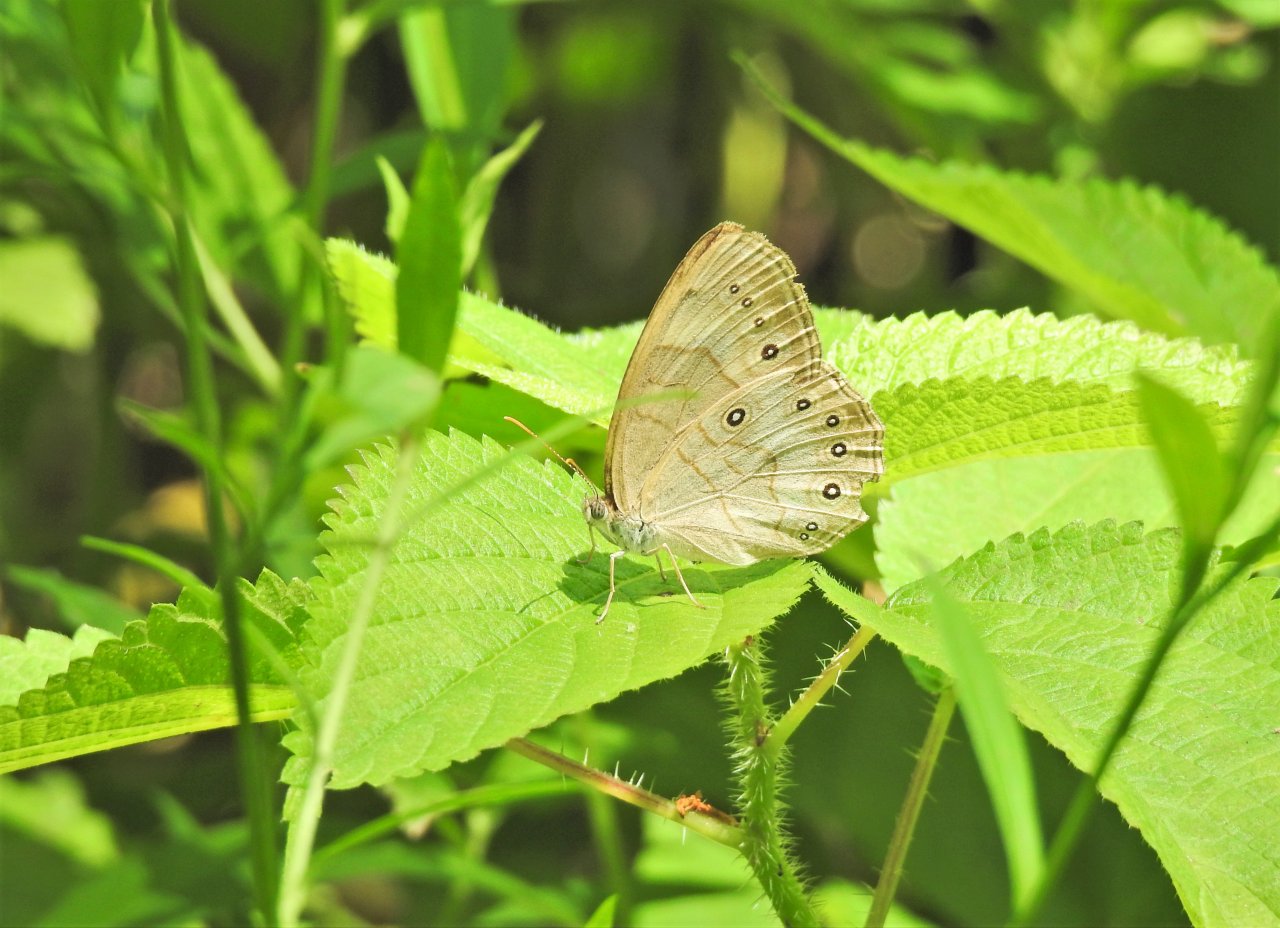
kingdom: Animalia
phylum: Arthropoda
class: Insecta
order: Lepidoptera
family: Nymphalidae
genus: Lethe
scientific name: Lethe eurydice
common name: Appalachian Eyed Brown
